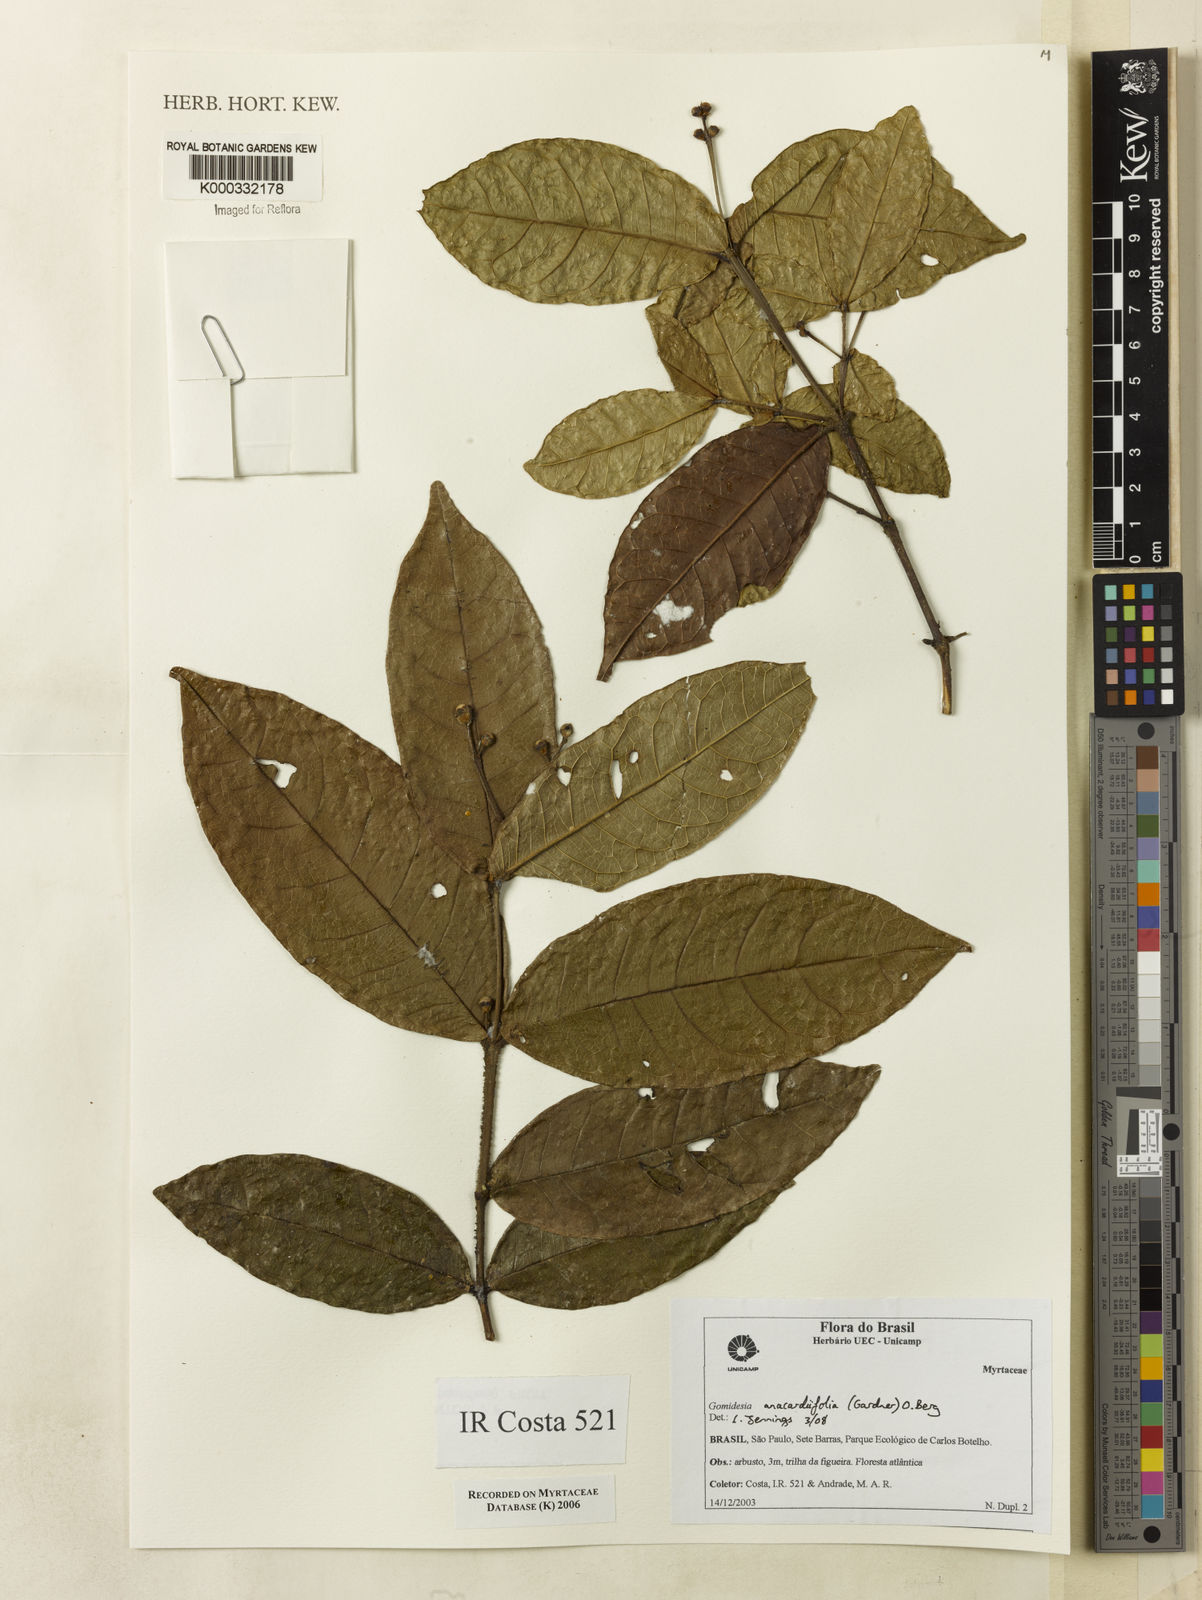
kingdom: Plantae
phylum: Tracheophyta
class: Magnoliopsida
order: Myrtales
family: Myrtaceae
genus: Myrcia
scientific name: Myrcia
